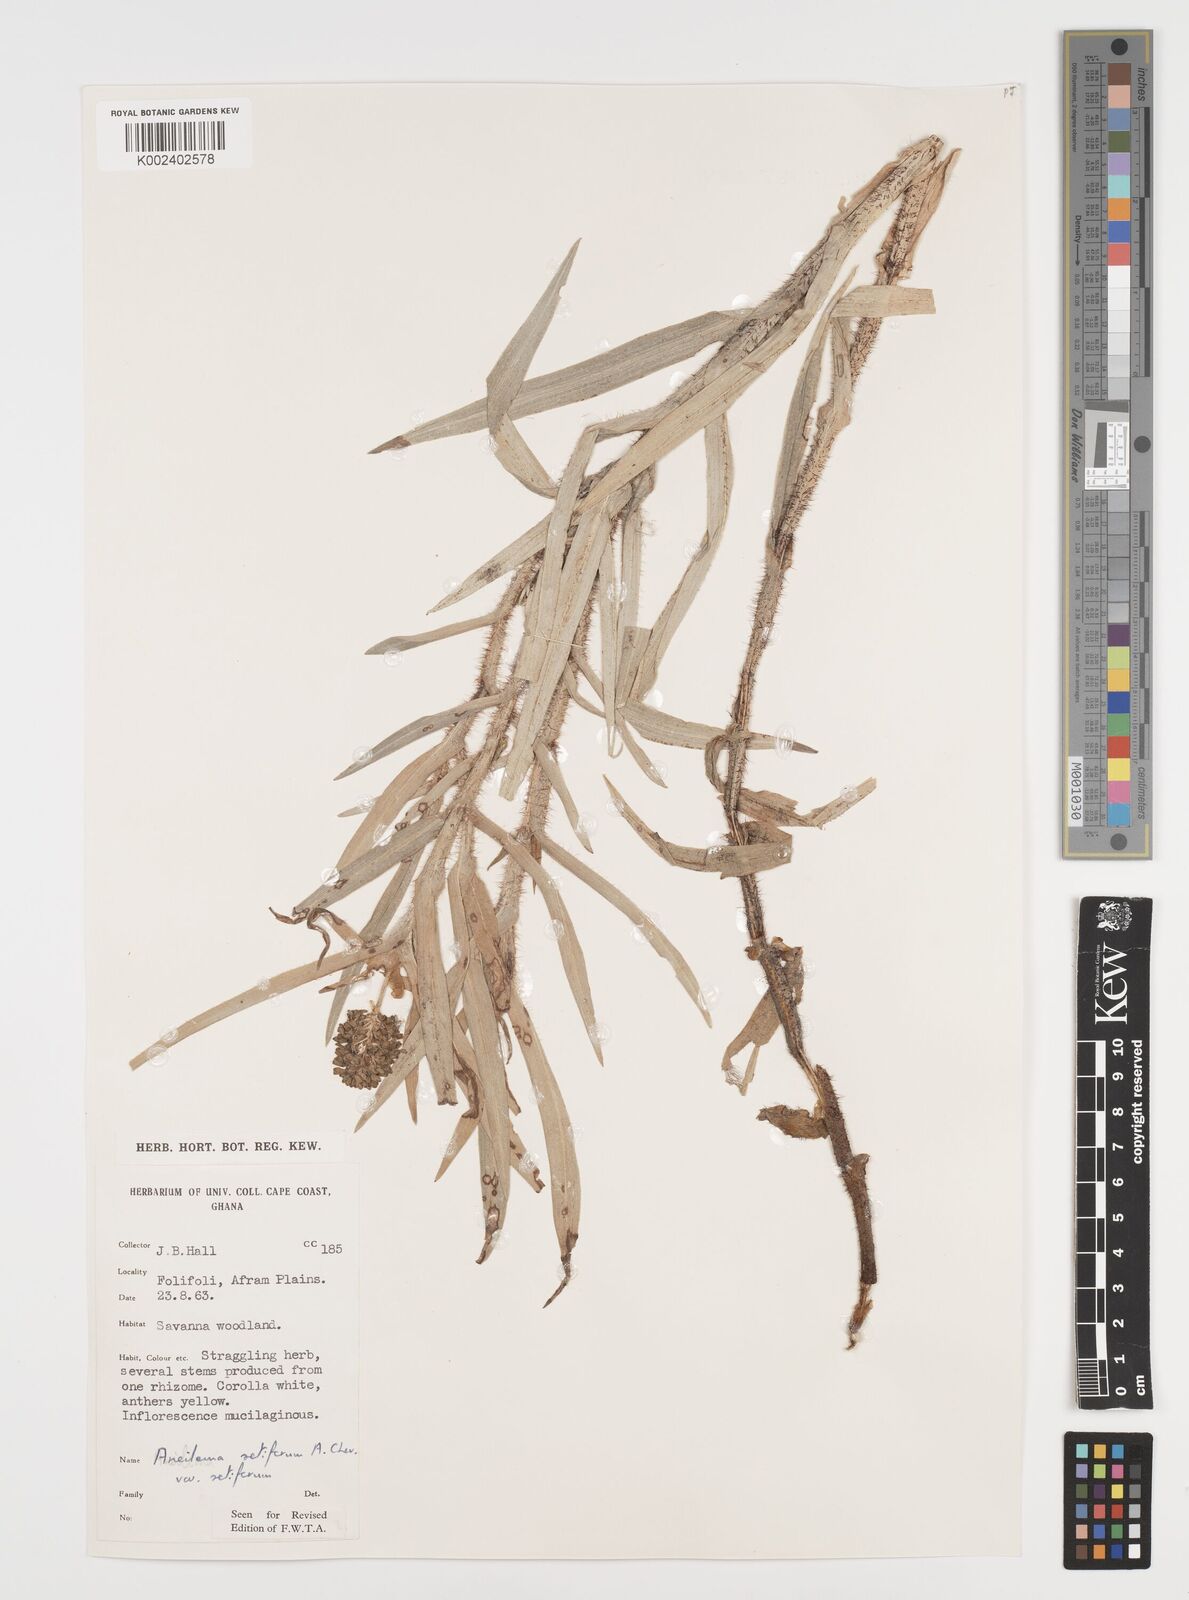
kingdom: Plantae
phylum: Tracheophyta
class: Liliopsida
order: Commelinales
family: Commelinaceae
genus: Aneilema
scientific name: Aneilema setiferum
